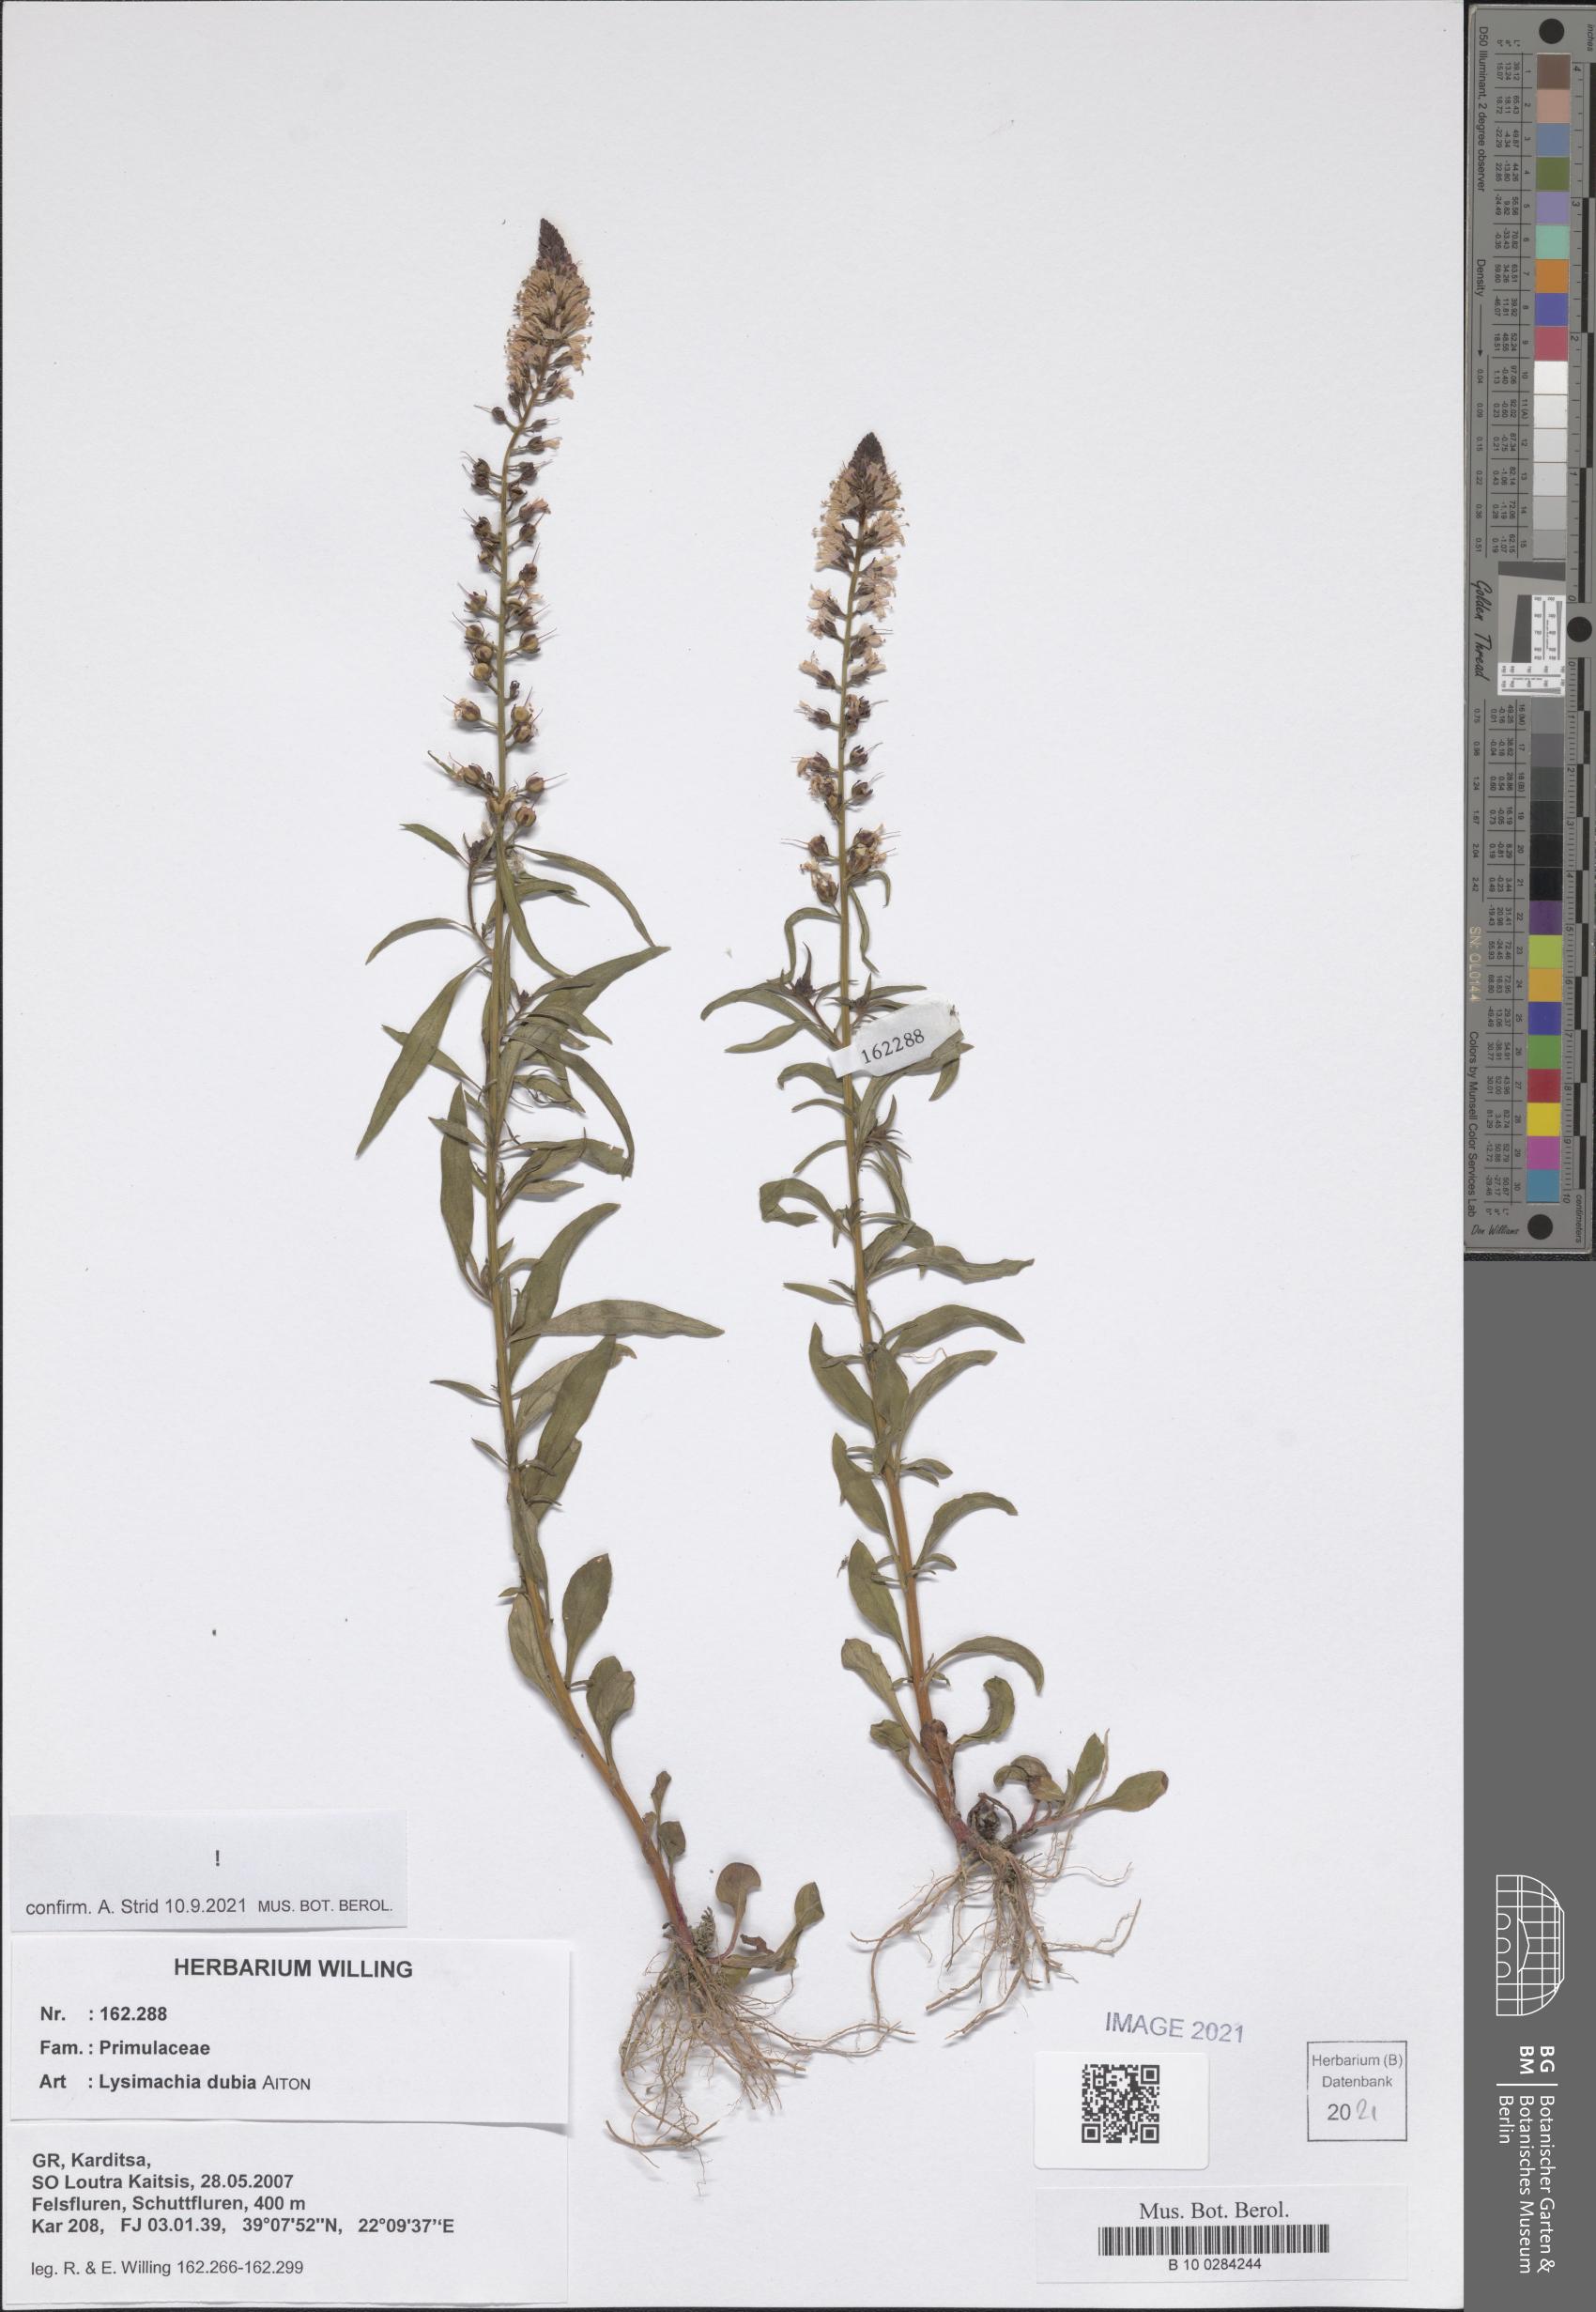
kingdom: Plantae
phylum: Tracheophyta
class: Magnoliopsida
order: Ericales
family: Primulaceae
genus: Lysimachia
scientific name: Lysimachia lanceolata
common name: Lance-leaved loosestrife
